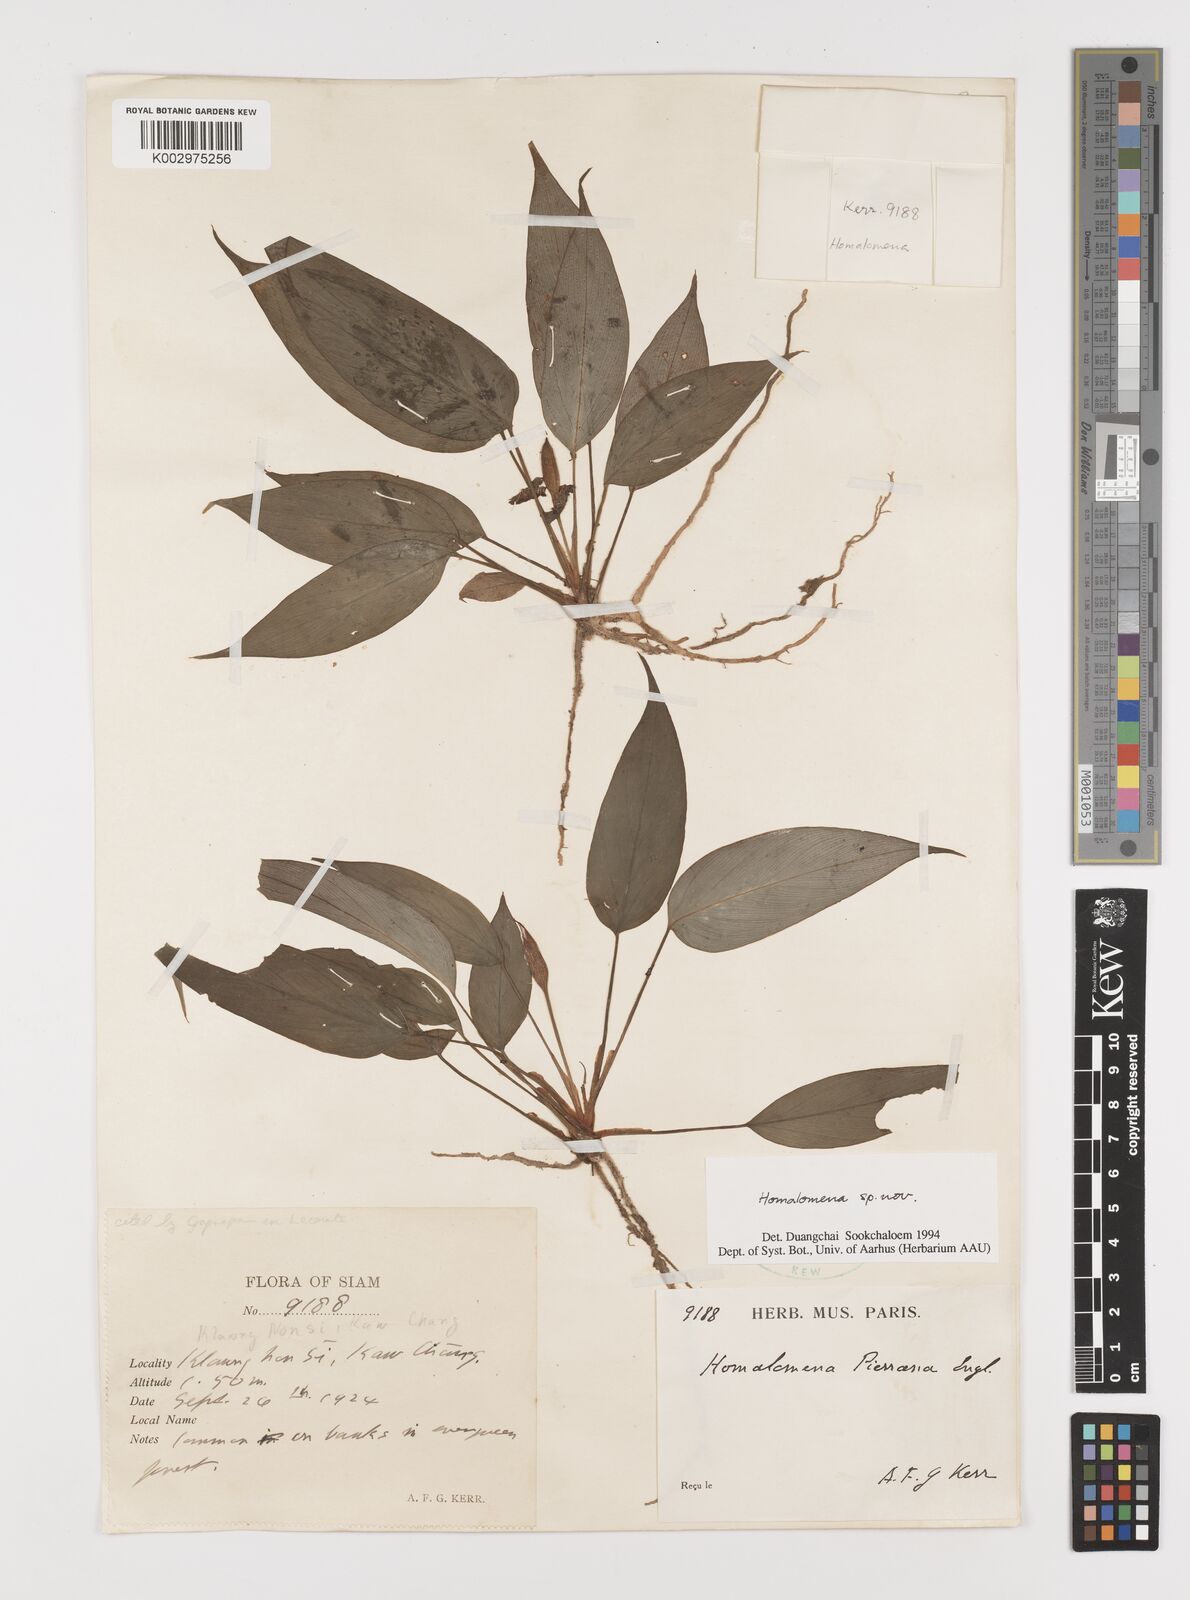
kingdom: Plantae
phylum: Tracheophyta
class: Liliopsida
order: Alismatales
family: Araceae
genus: Homalomena
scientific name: Homalomena
